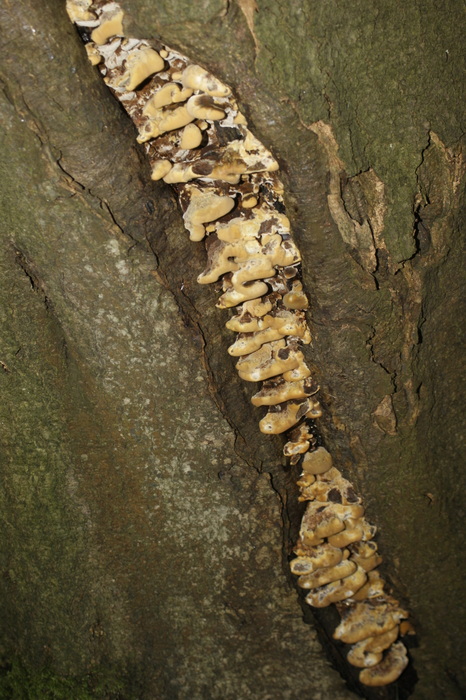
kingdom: Fungi
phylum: Basidiomycota
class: Agaricomycetes
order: Hymenochaetales
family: Hymenochaetaceae
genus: Inonotus
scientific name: Inonotus cuticularis
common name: kroghåret spejlporesvamp
